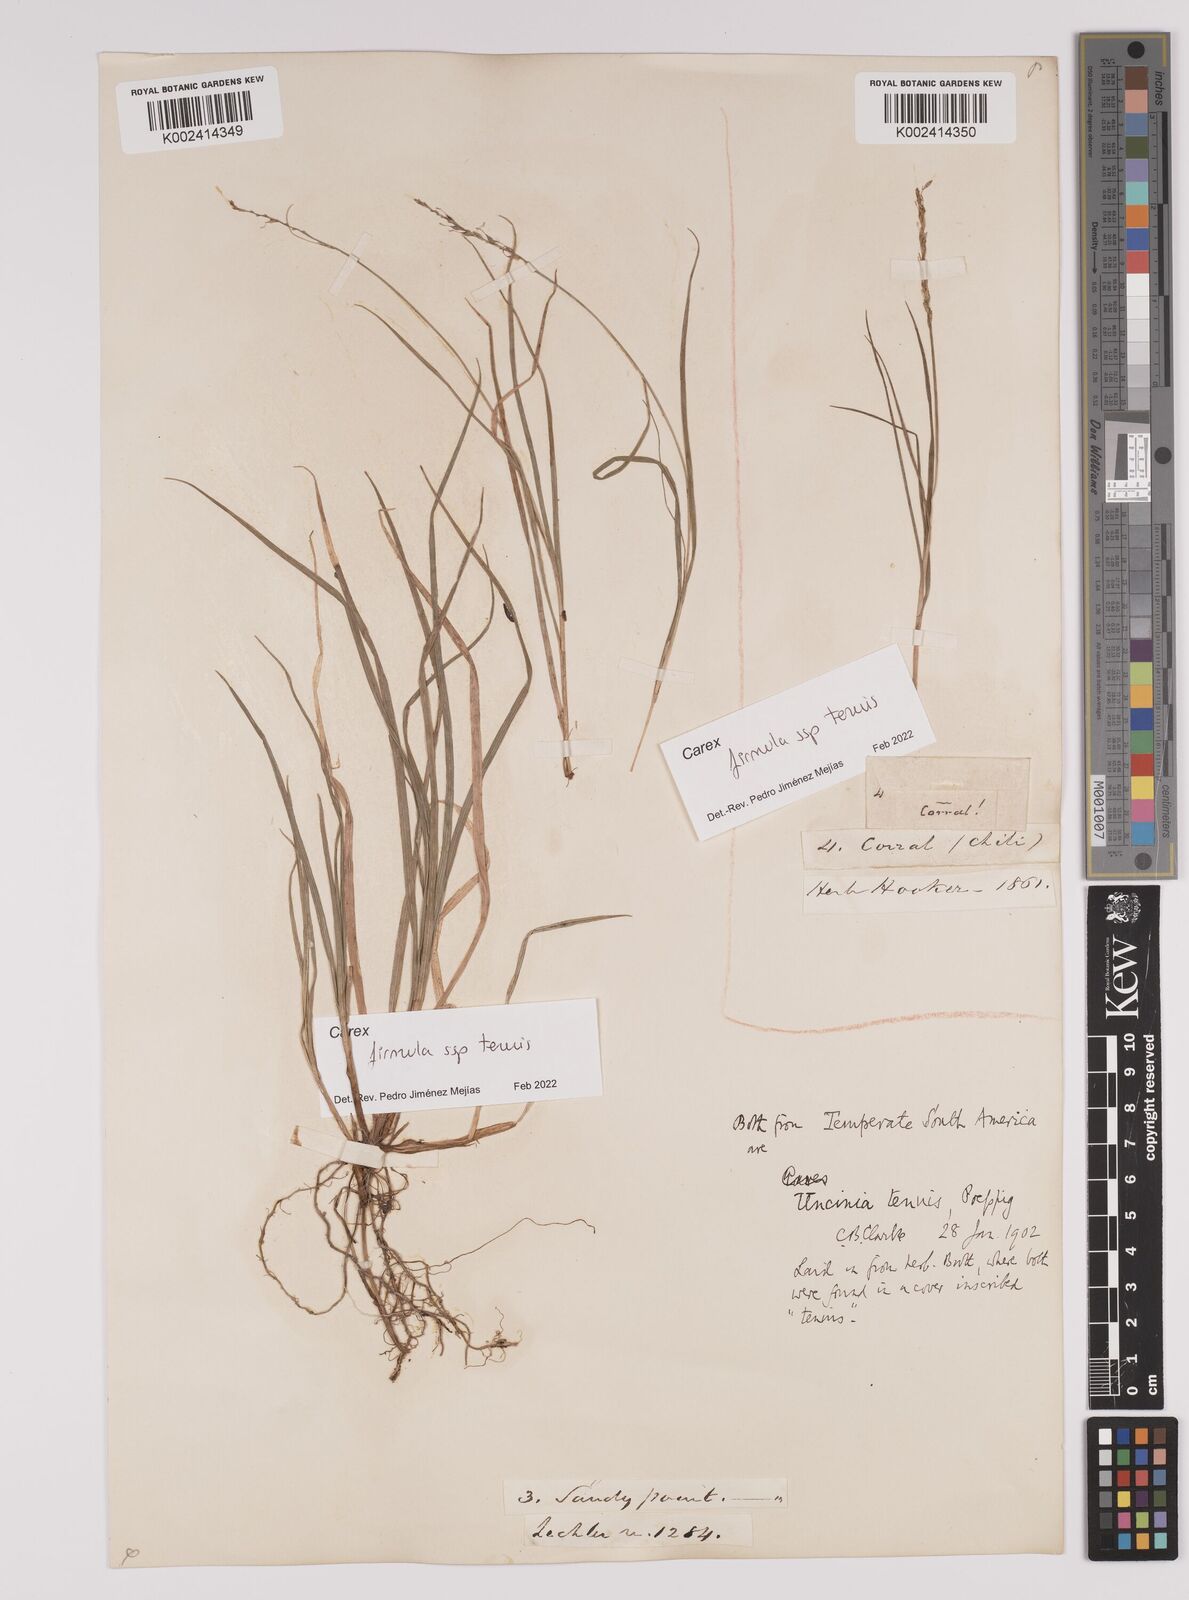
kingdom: Plantae
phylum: Tracheophyta
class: Liliopsida
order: Poales
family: Cyperaceae
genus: Carex
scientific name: Carex firmula
